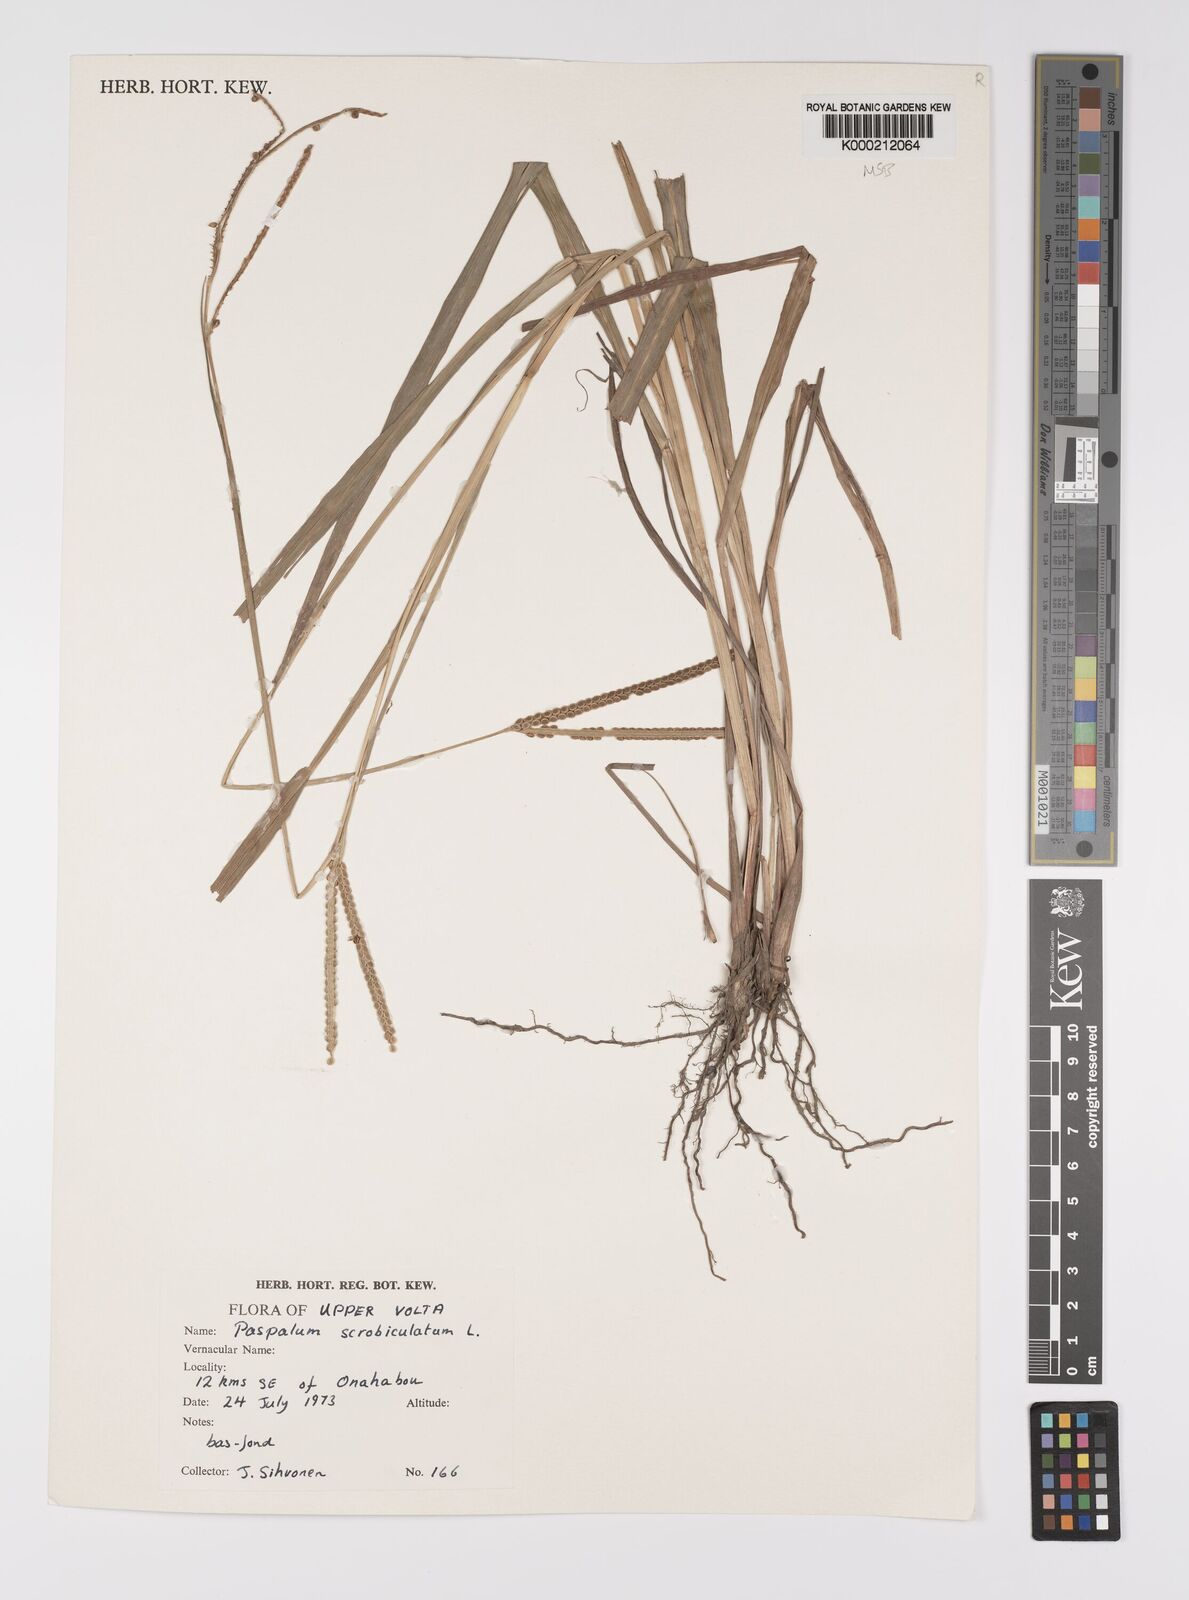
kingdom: Plantae
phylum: Tracheophyta
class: Liliopsida
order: Poales
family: Poaceae
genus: Paspalum
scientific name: Paspalum scrobiculatum
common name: Kodo millet
